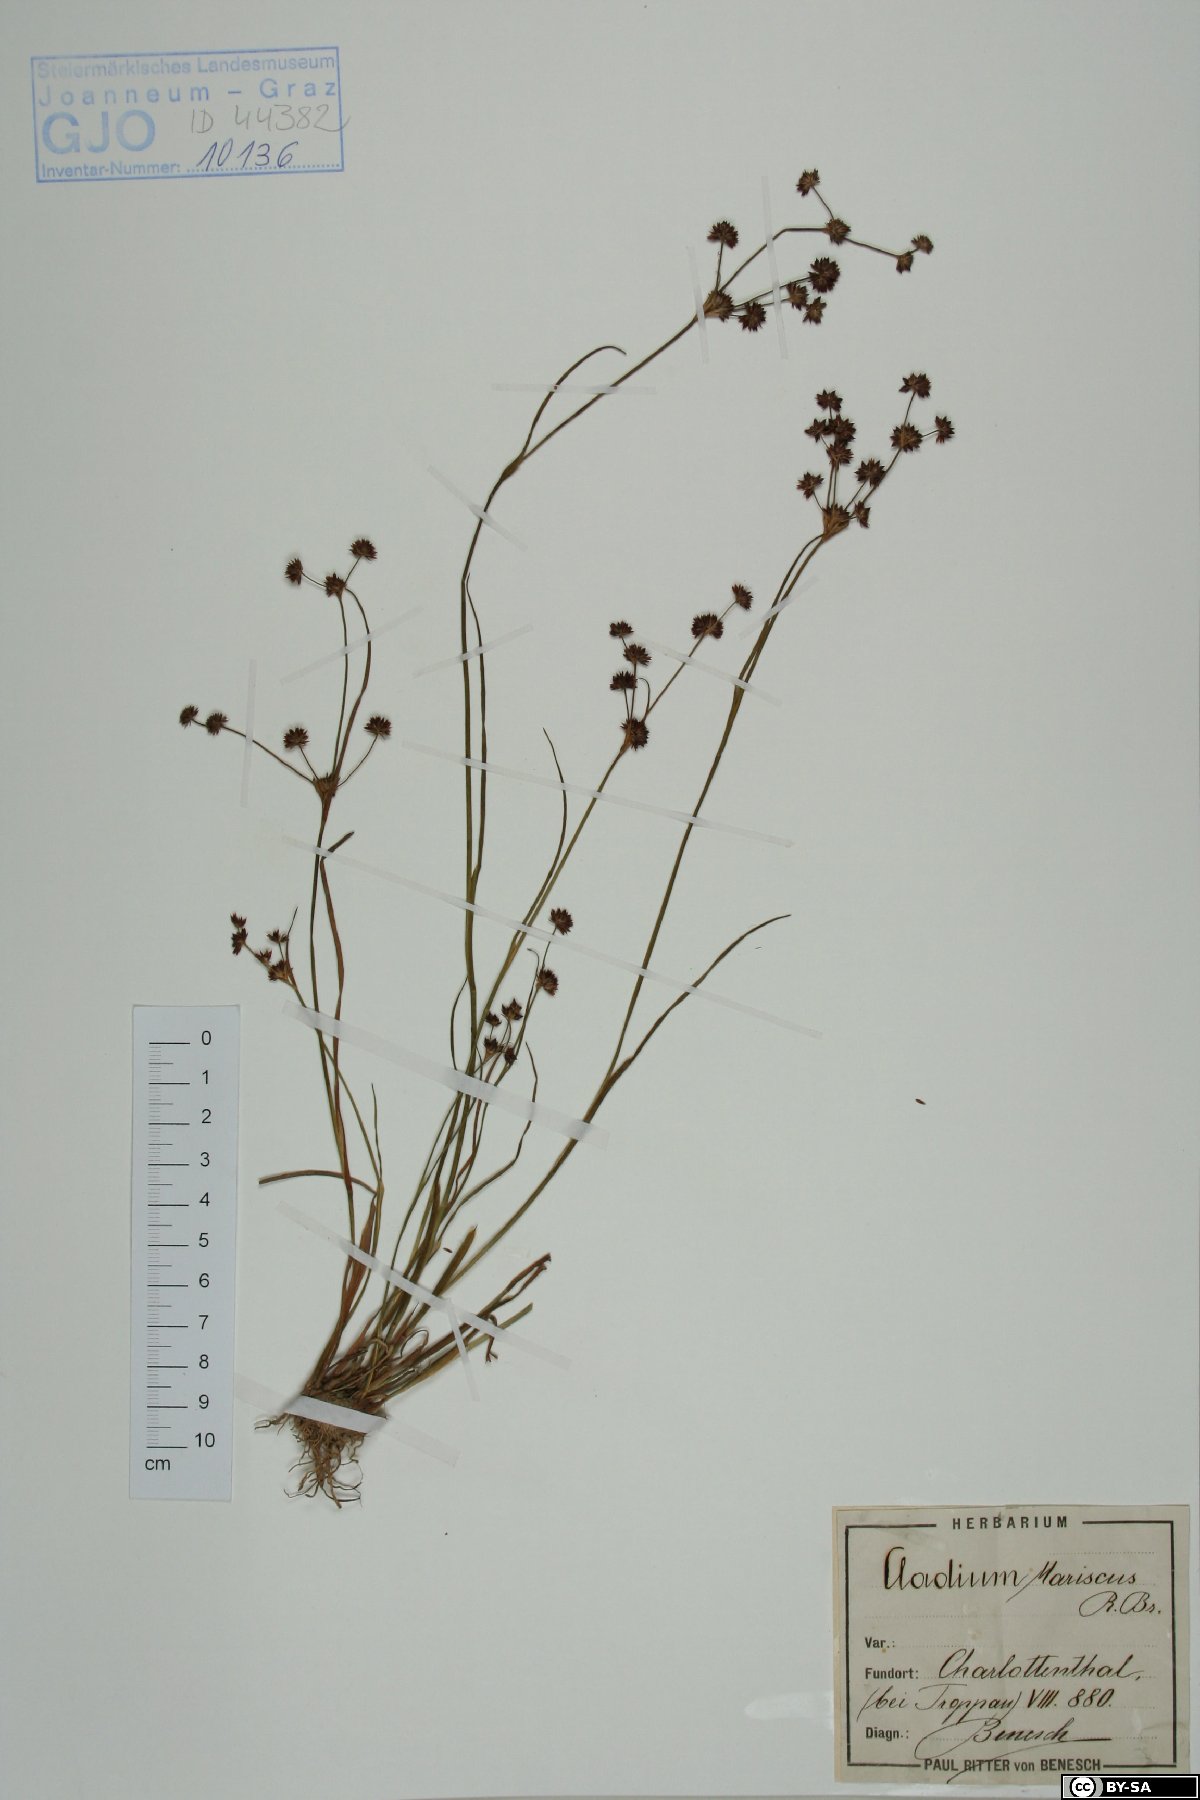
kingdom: Plantae
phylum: Tracheophyta
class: Liliopsida
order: Poales
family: Cyperaceae
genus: Cladium
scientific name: Cladium mariscus
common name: Great fen-sedge
